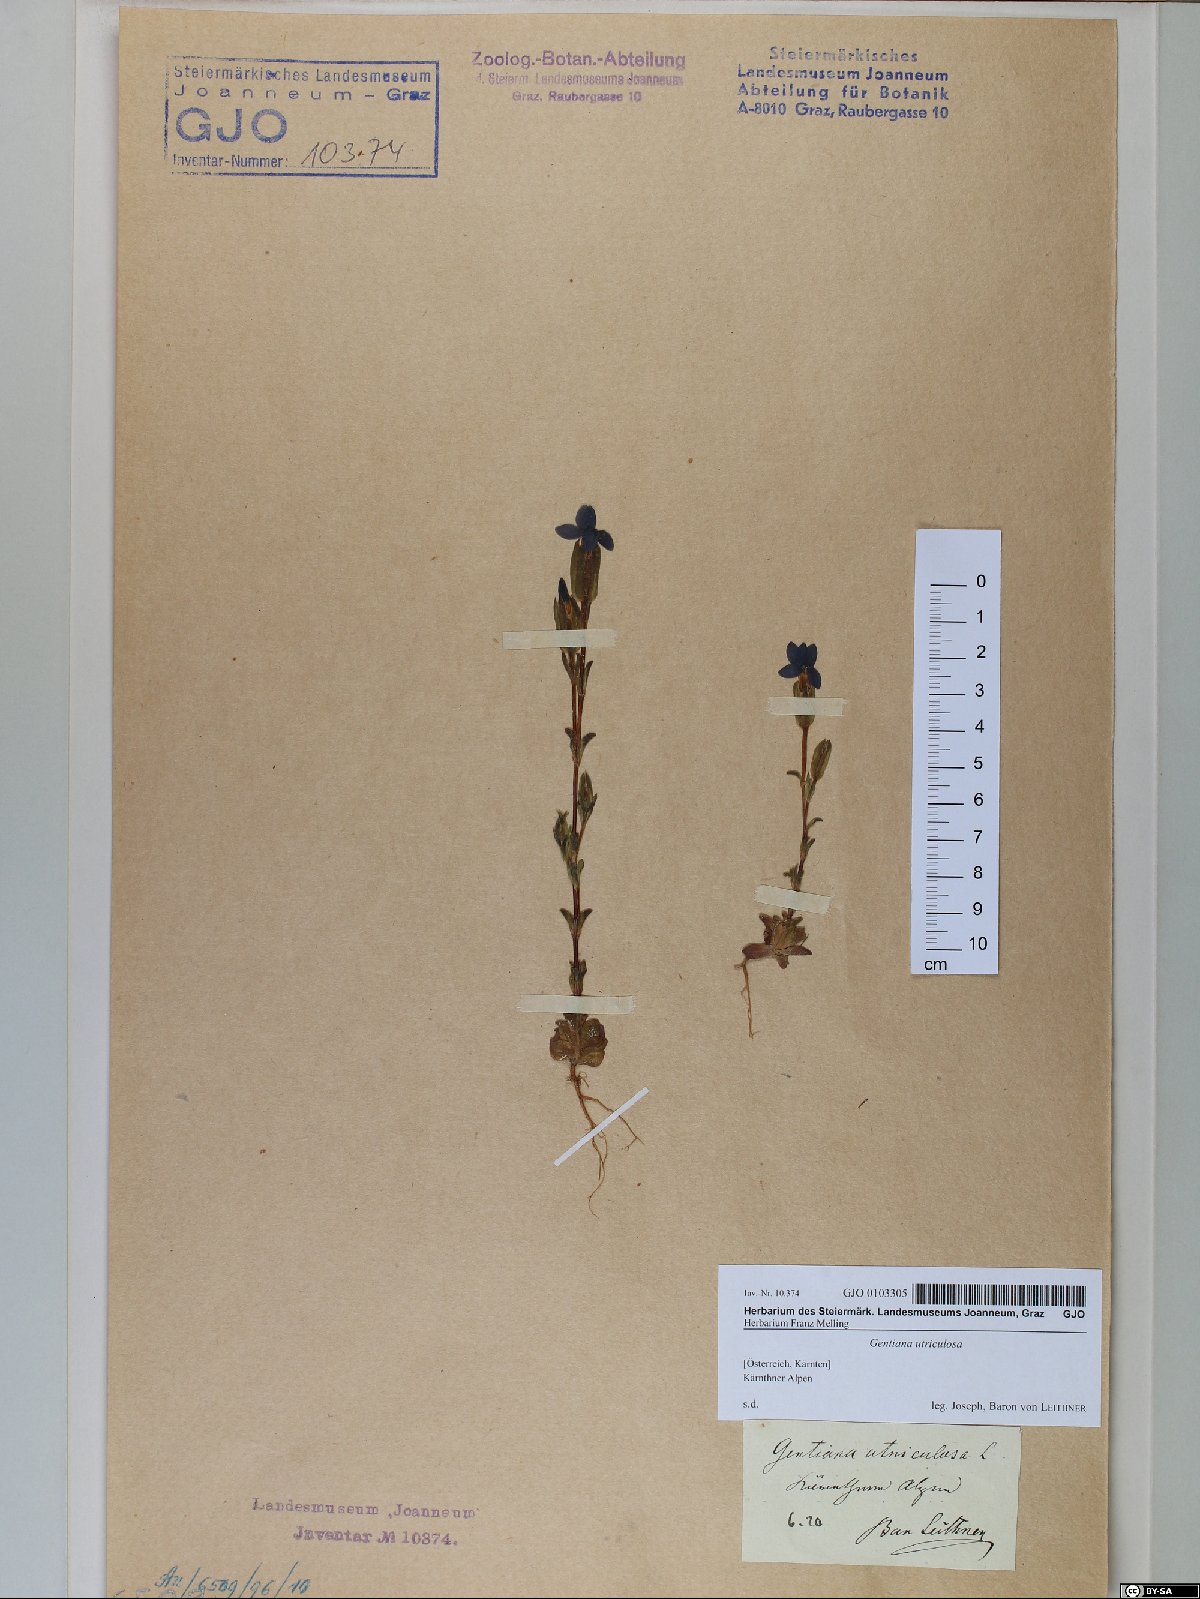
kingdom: Plantae
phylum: Tracheophyta
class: Magnoliopsida
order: Gentianales
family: Gentianaceae
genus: Gentiana
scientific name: Gentiana utriculosa
